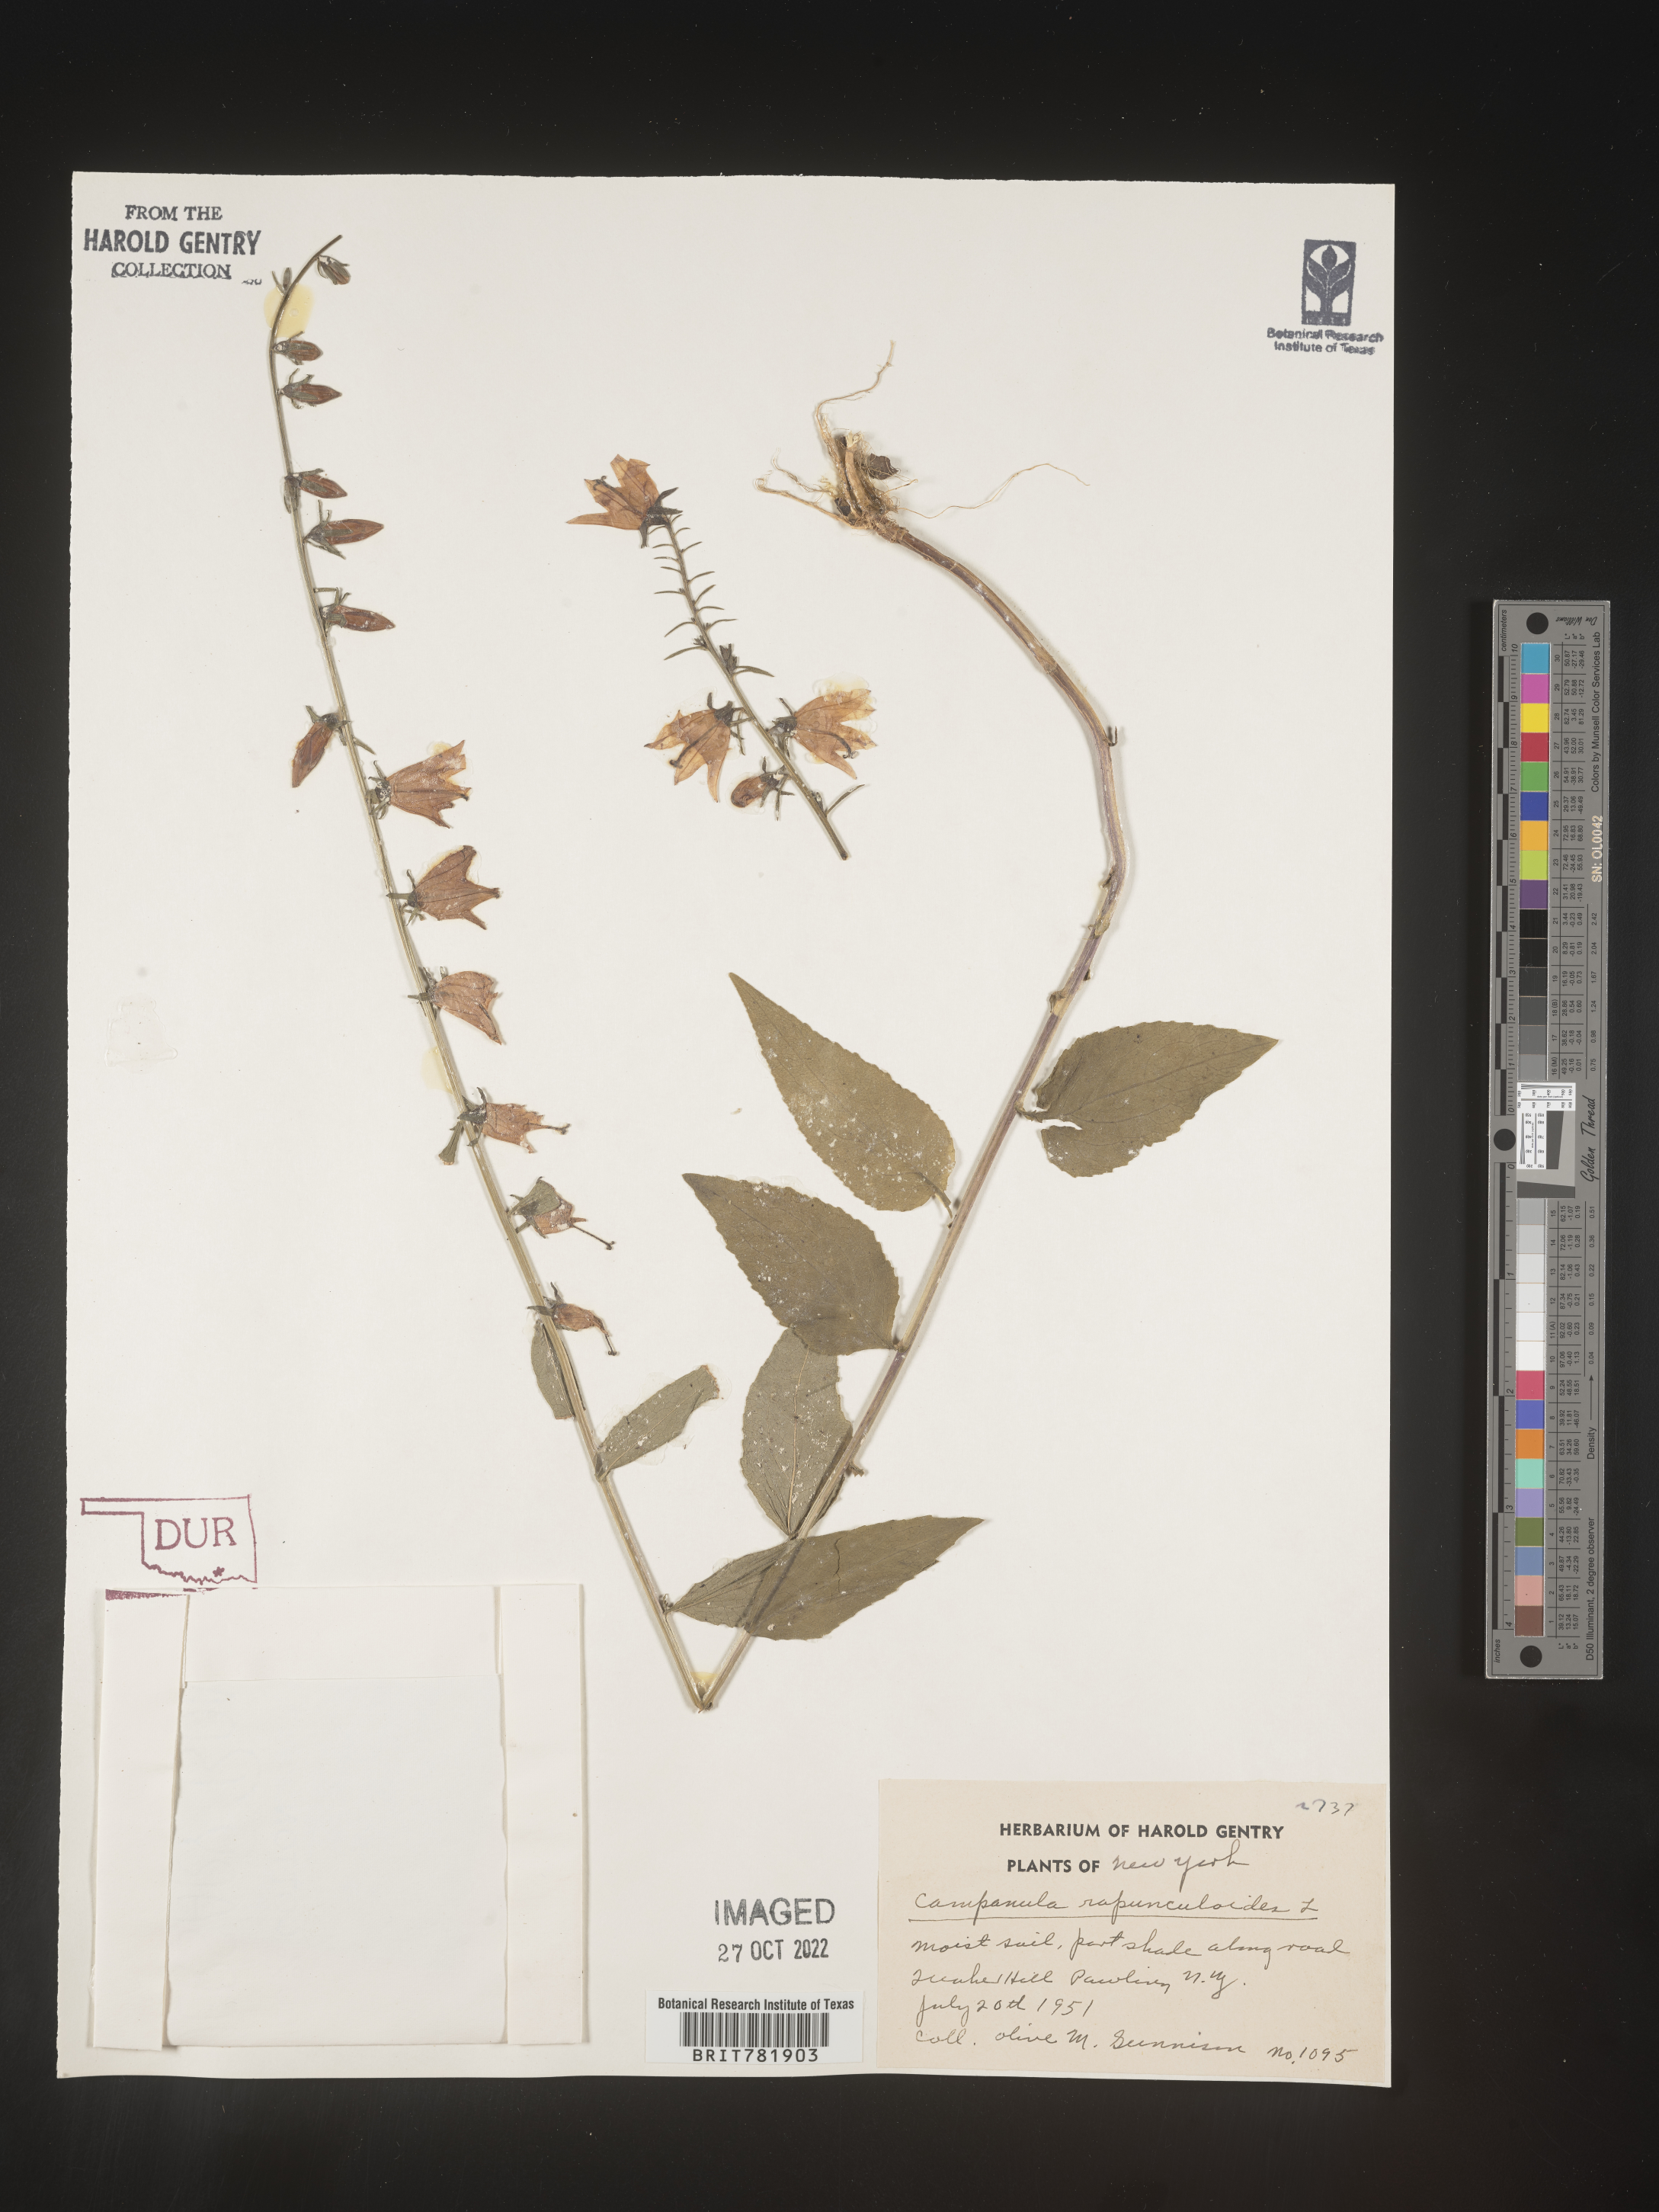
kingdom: Plantae
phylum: Tracheophyta
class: Magnoliopsida
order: Asterales
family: Campanulaceae
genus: Campanula
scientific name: Campanula
